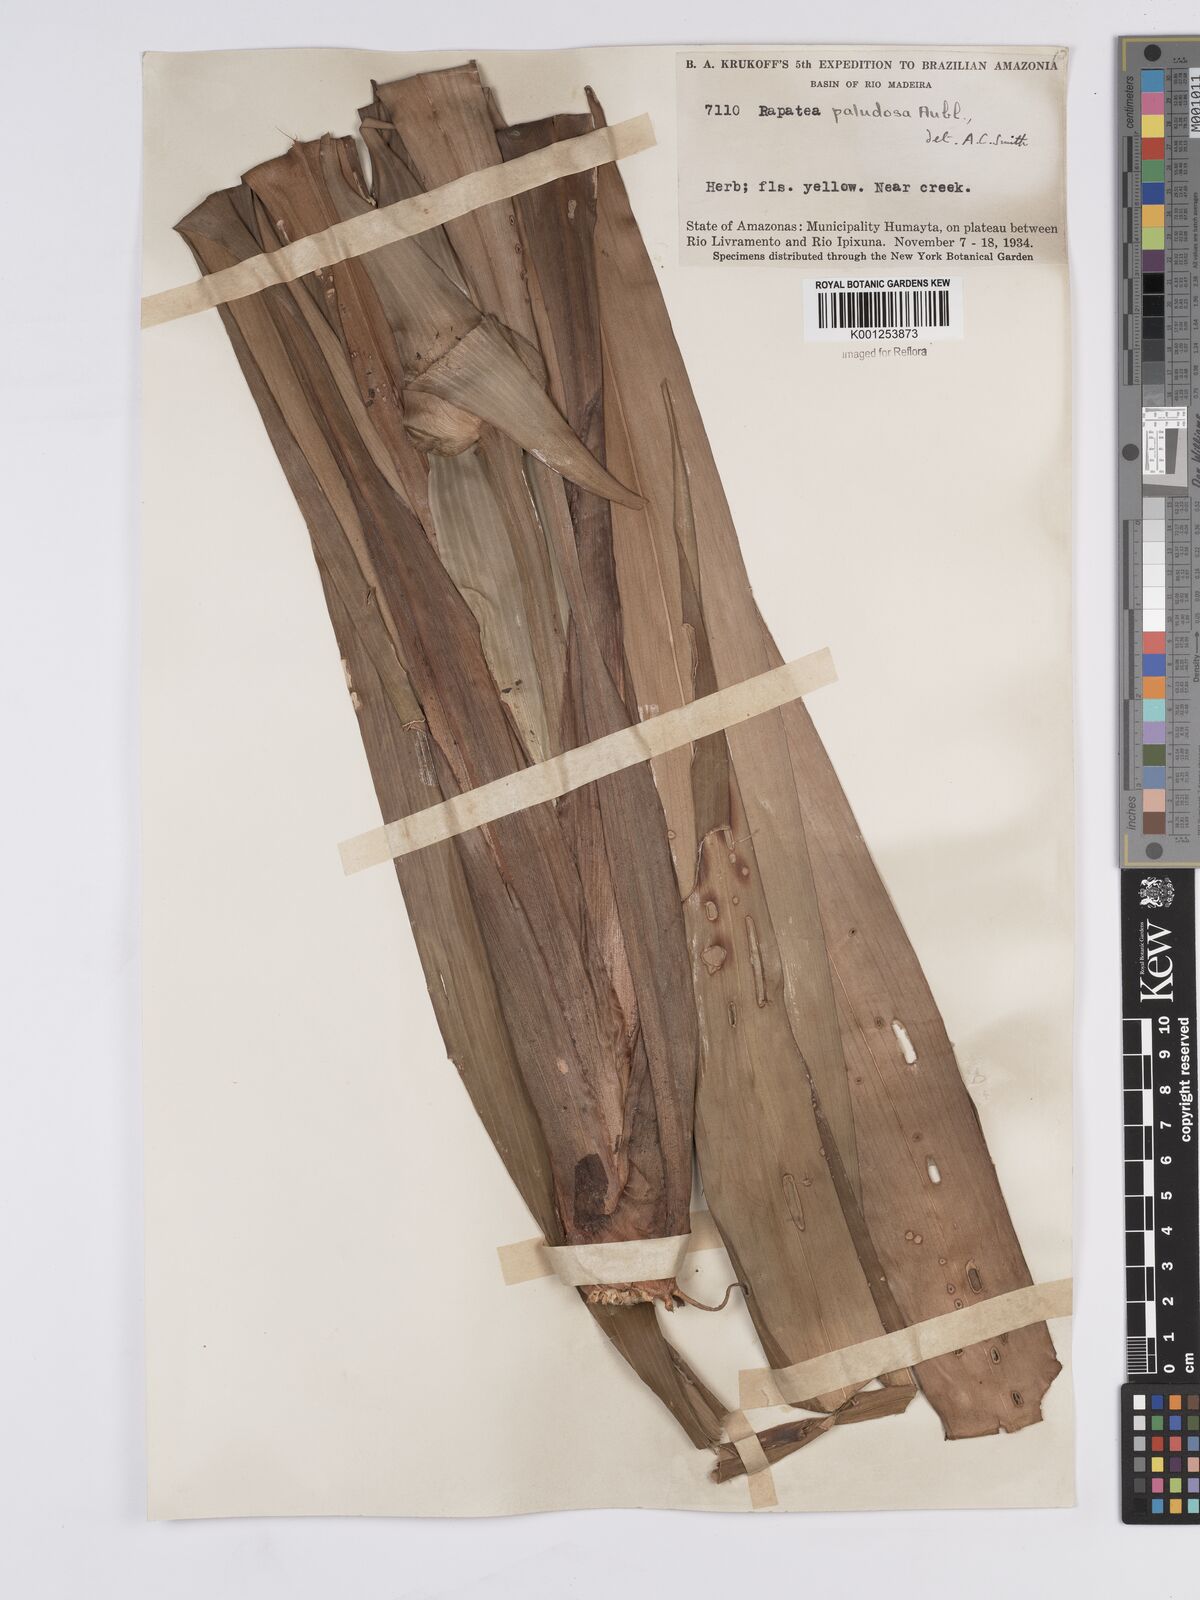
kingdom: Plantae
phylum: Tracheophyta
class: Liliopsida
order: Poales
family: Rapateaceae
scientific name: Rapateaceae
